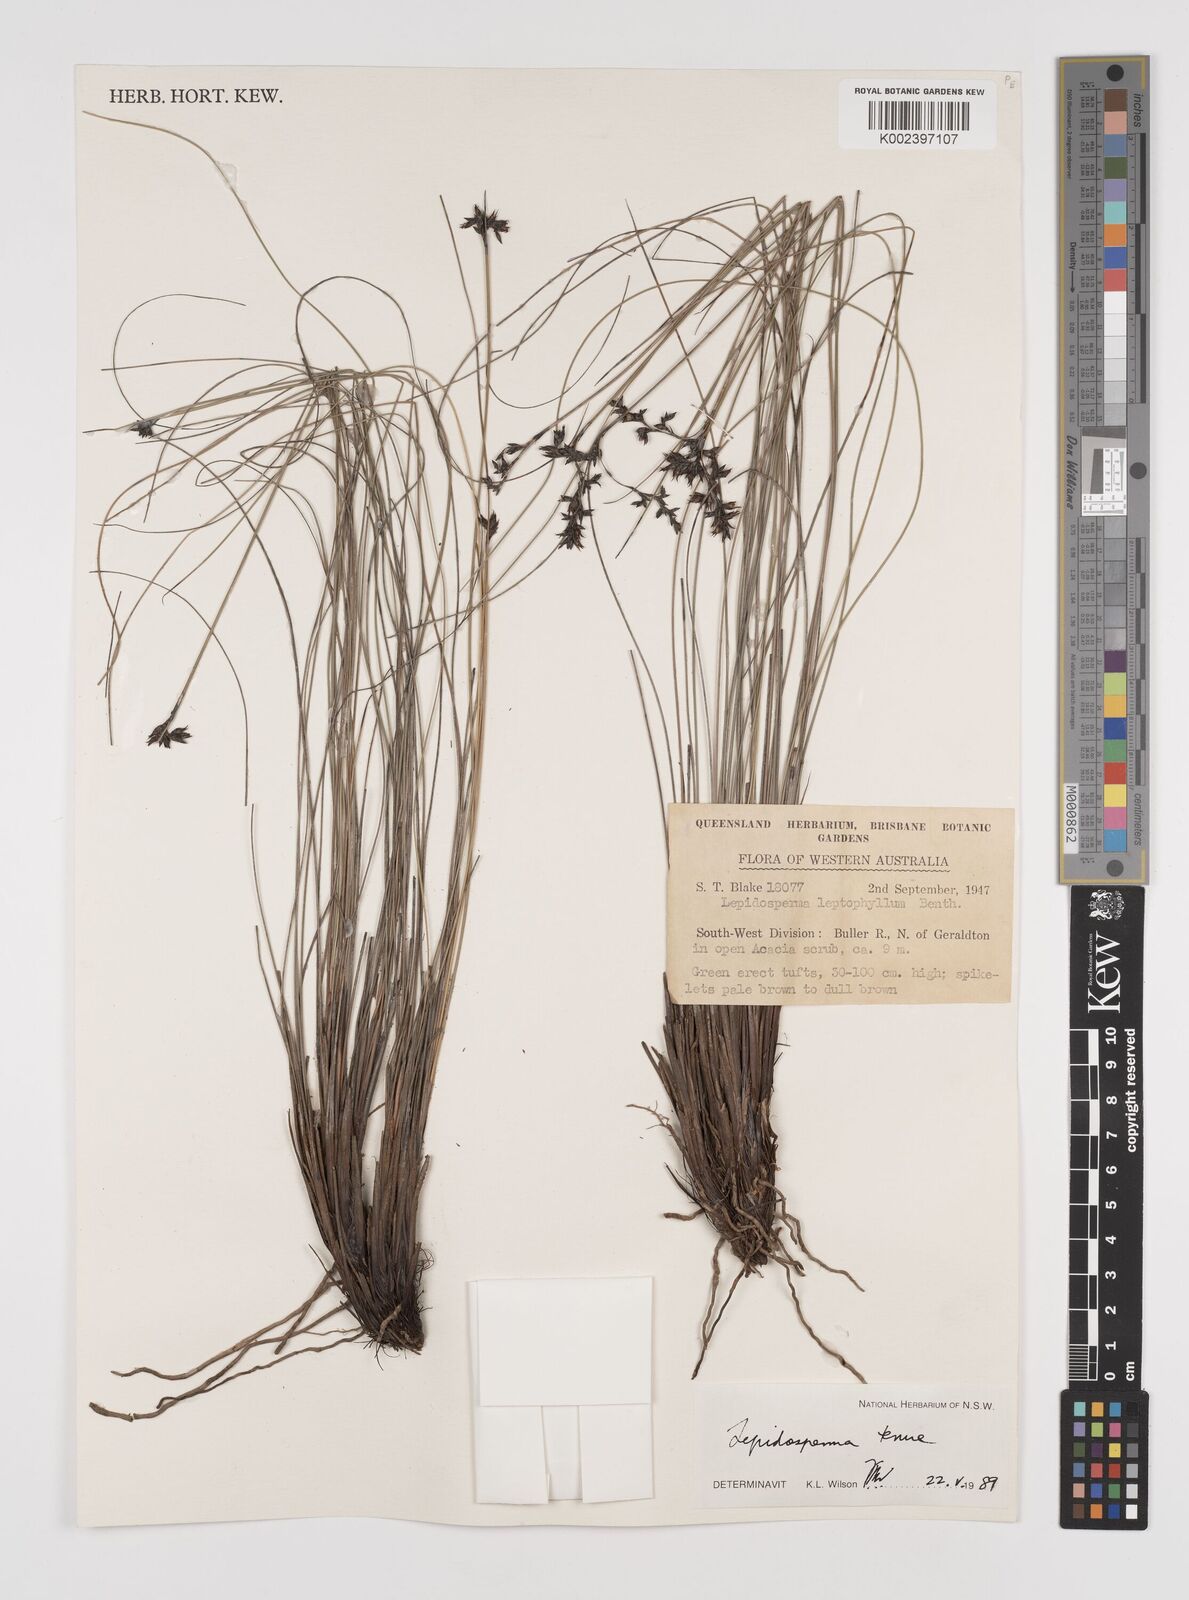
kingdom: Plantae
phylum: Tracheophyta
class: Liliopsida
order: Poales
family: Cyperaceae
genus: Lepidosperma
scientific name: Lepidosperma tenue
